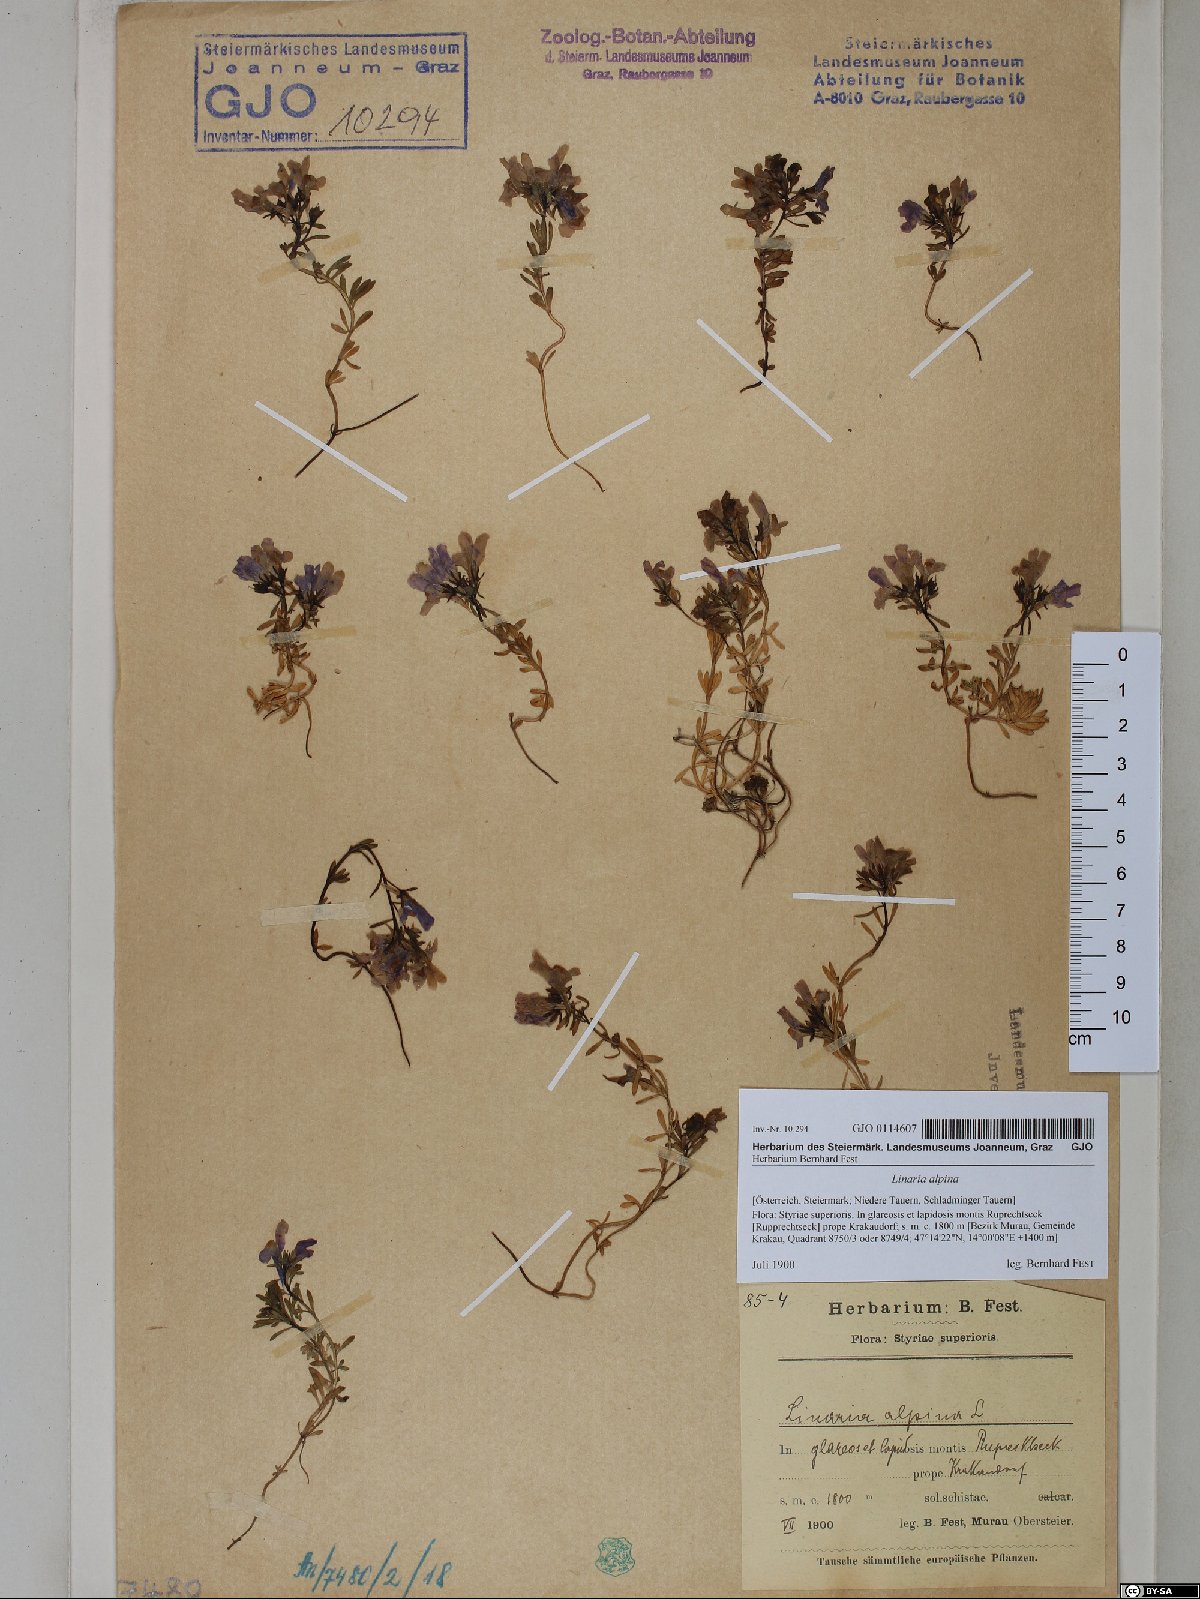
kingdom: Plantae
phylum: Tracheophyta
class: Magnoliopsida
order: Lamiales
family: Plantaginaceae
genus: Linaria
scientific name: Linaria alpina
